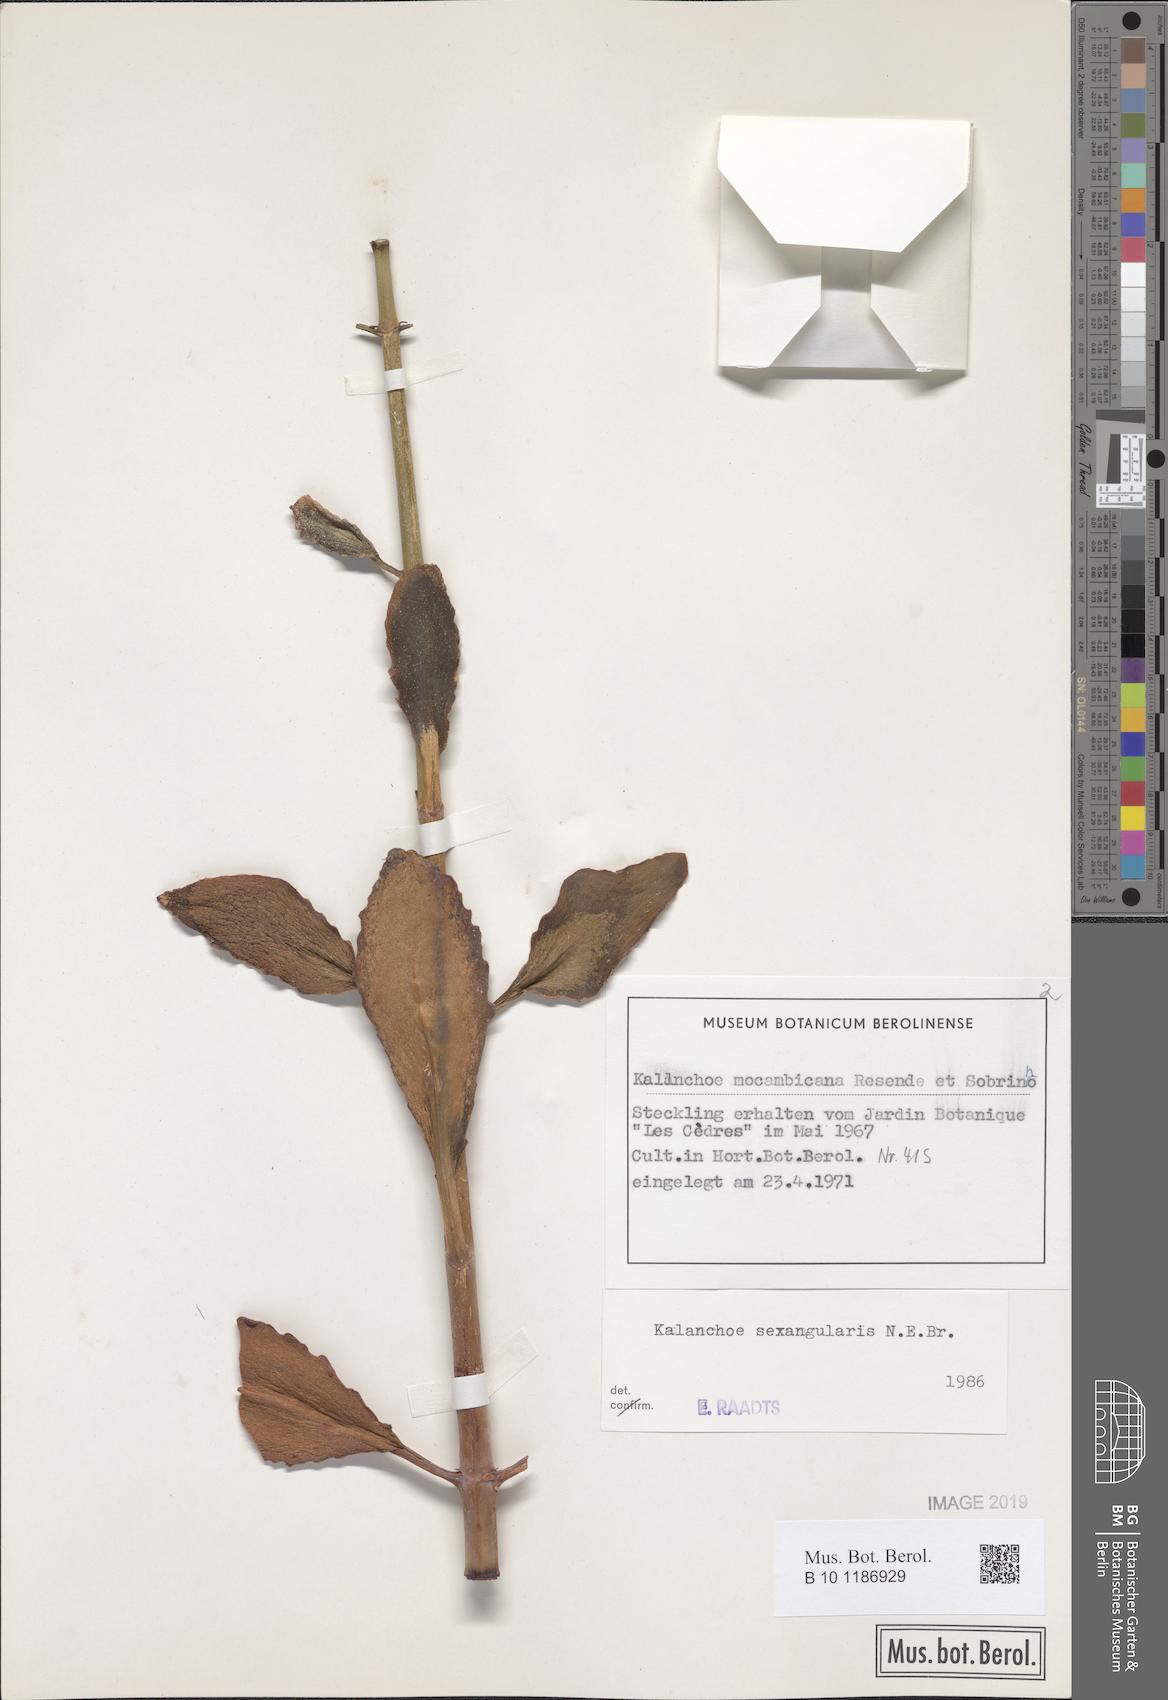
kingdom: Plantae
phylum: Tracheophyta
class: Magnoliopsida
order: Saxifragales
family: Crassulaceae
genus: Kalanchoe
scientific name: Kalanchoe sexangularis
